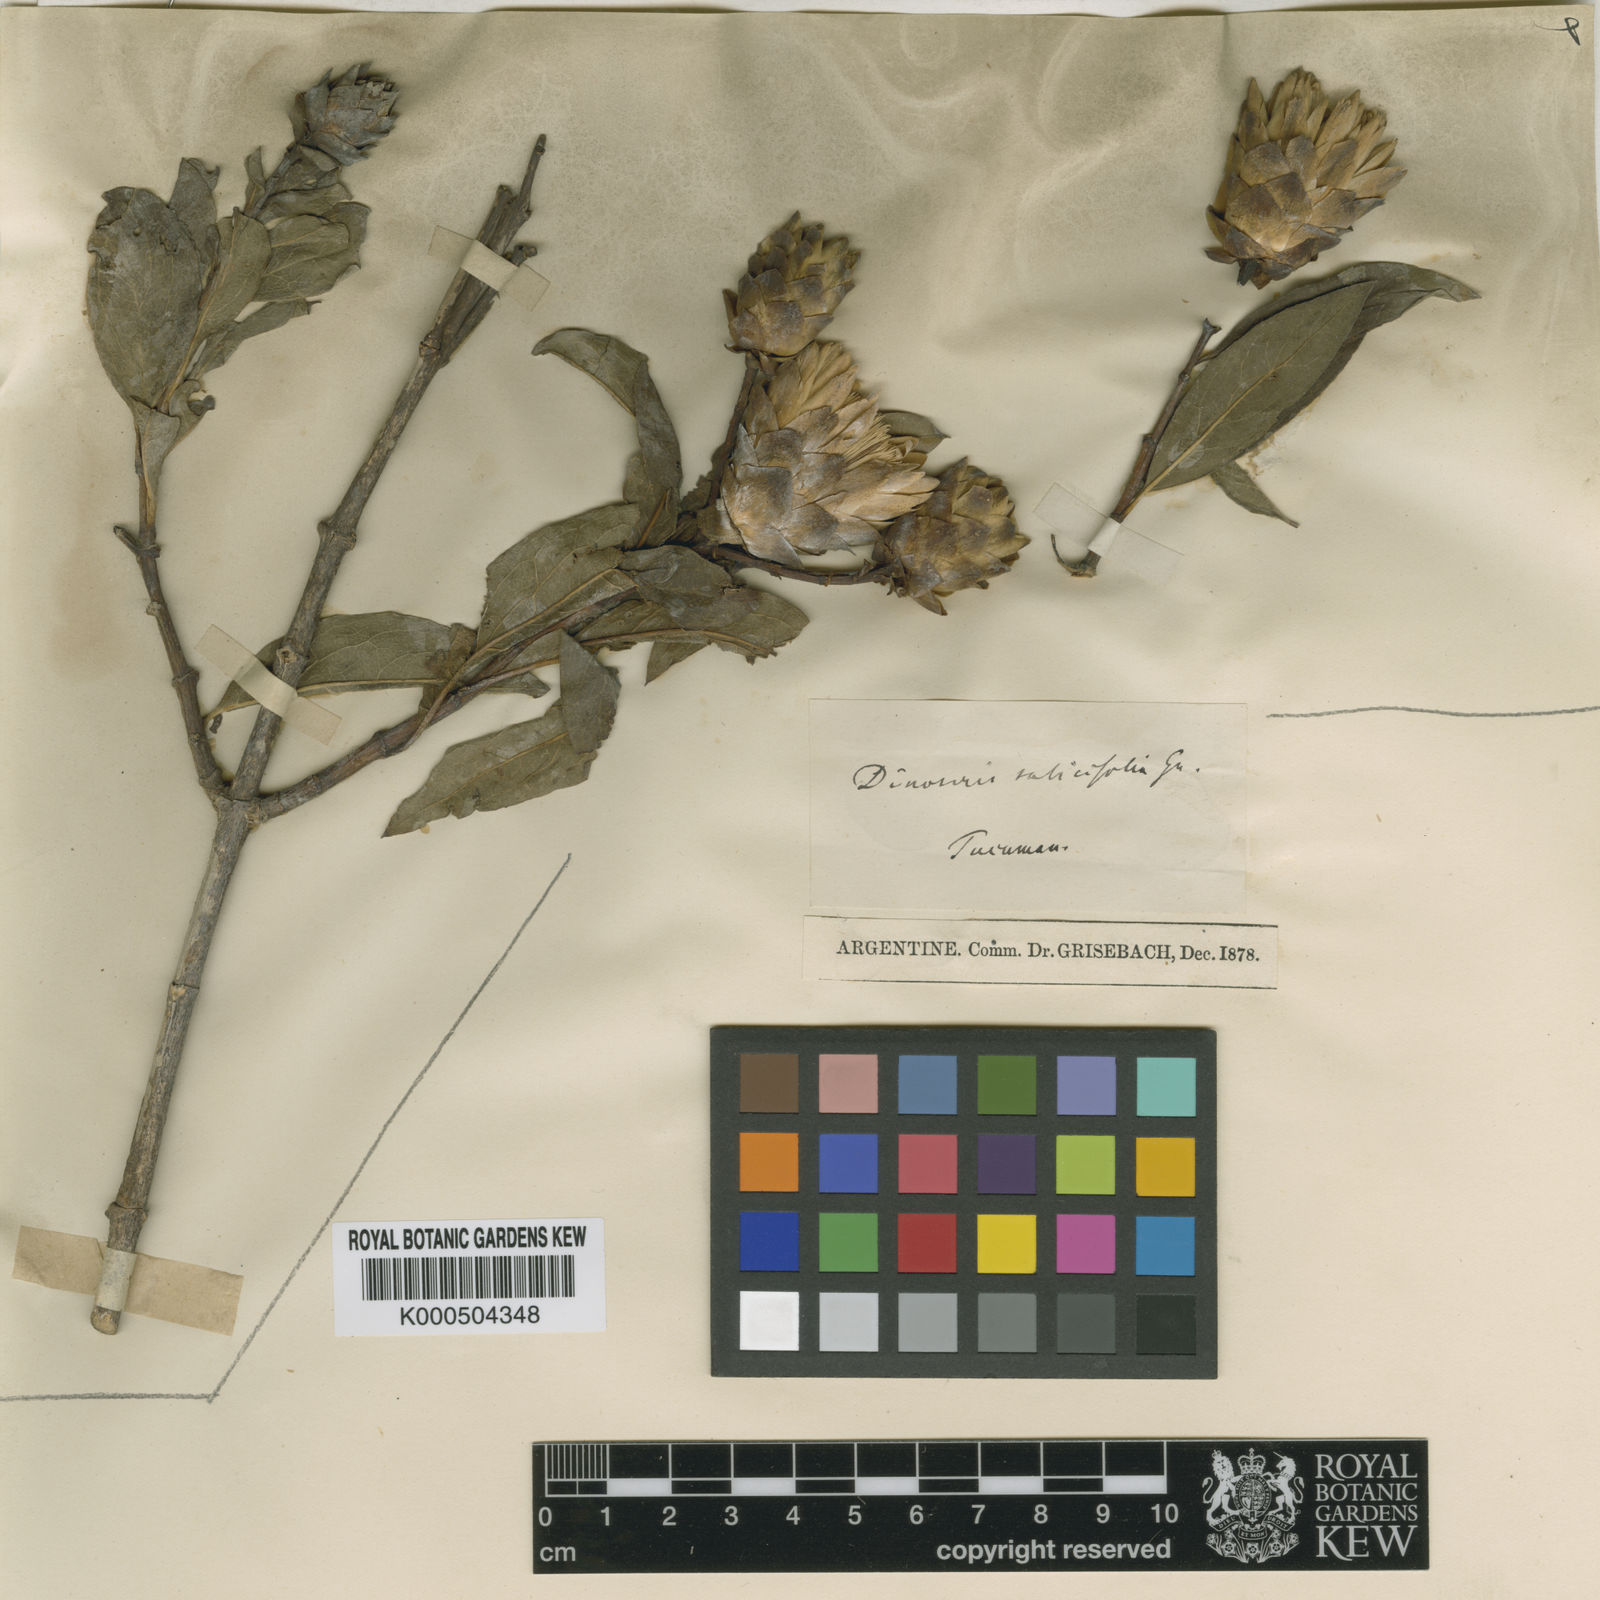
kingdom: Plantae
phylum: Tracheophyta
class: Magnoliopsida
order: Asterales
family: Asteraceae
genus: Hyaloseris
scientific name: Hyaloseris salicifolia
